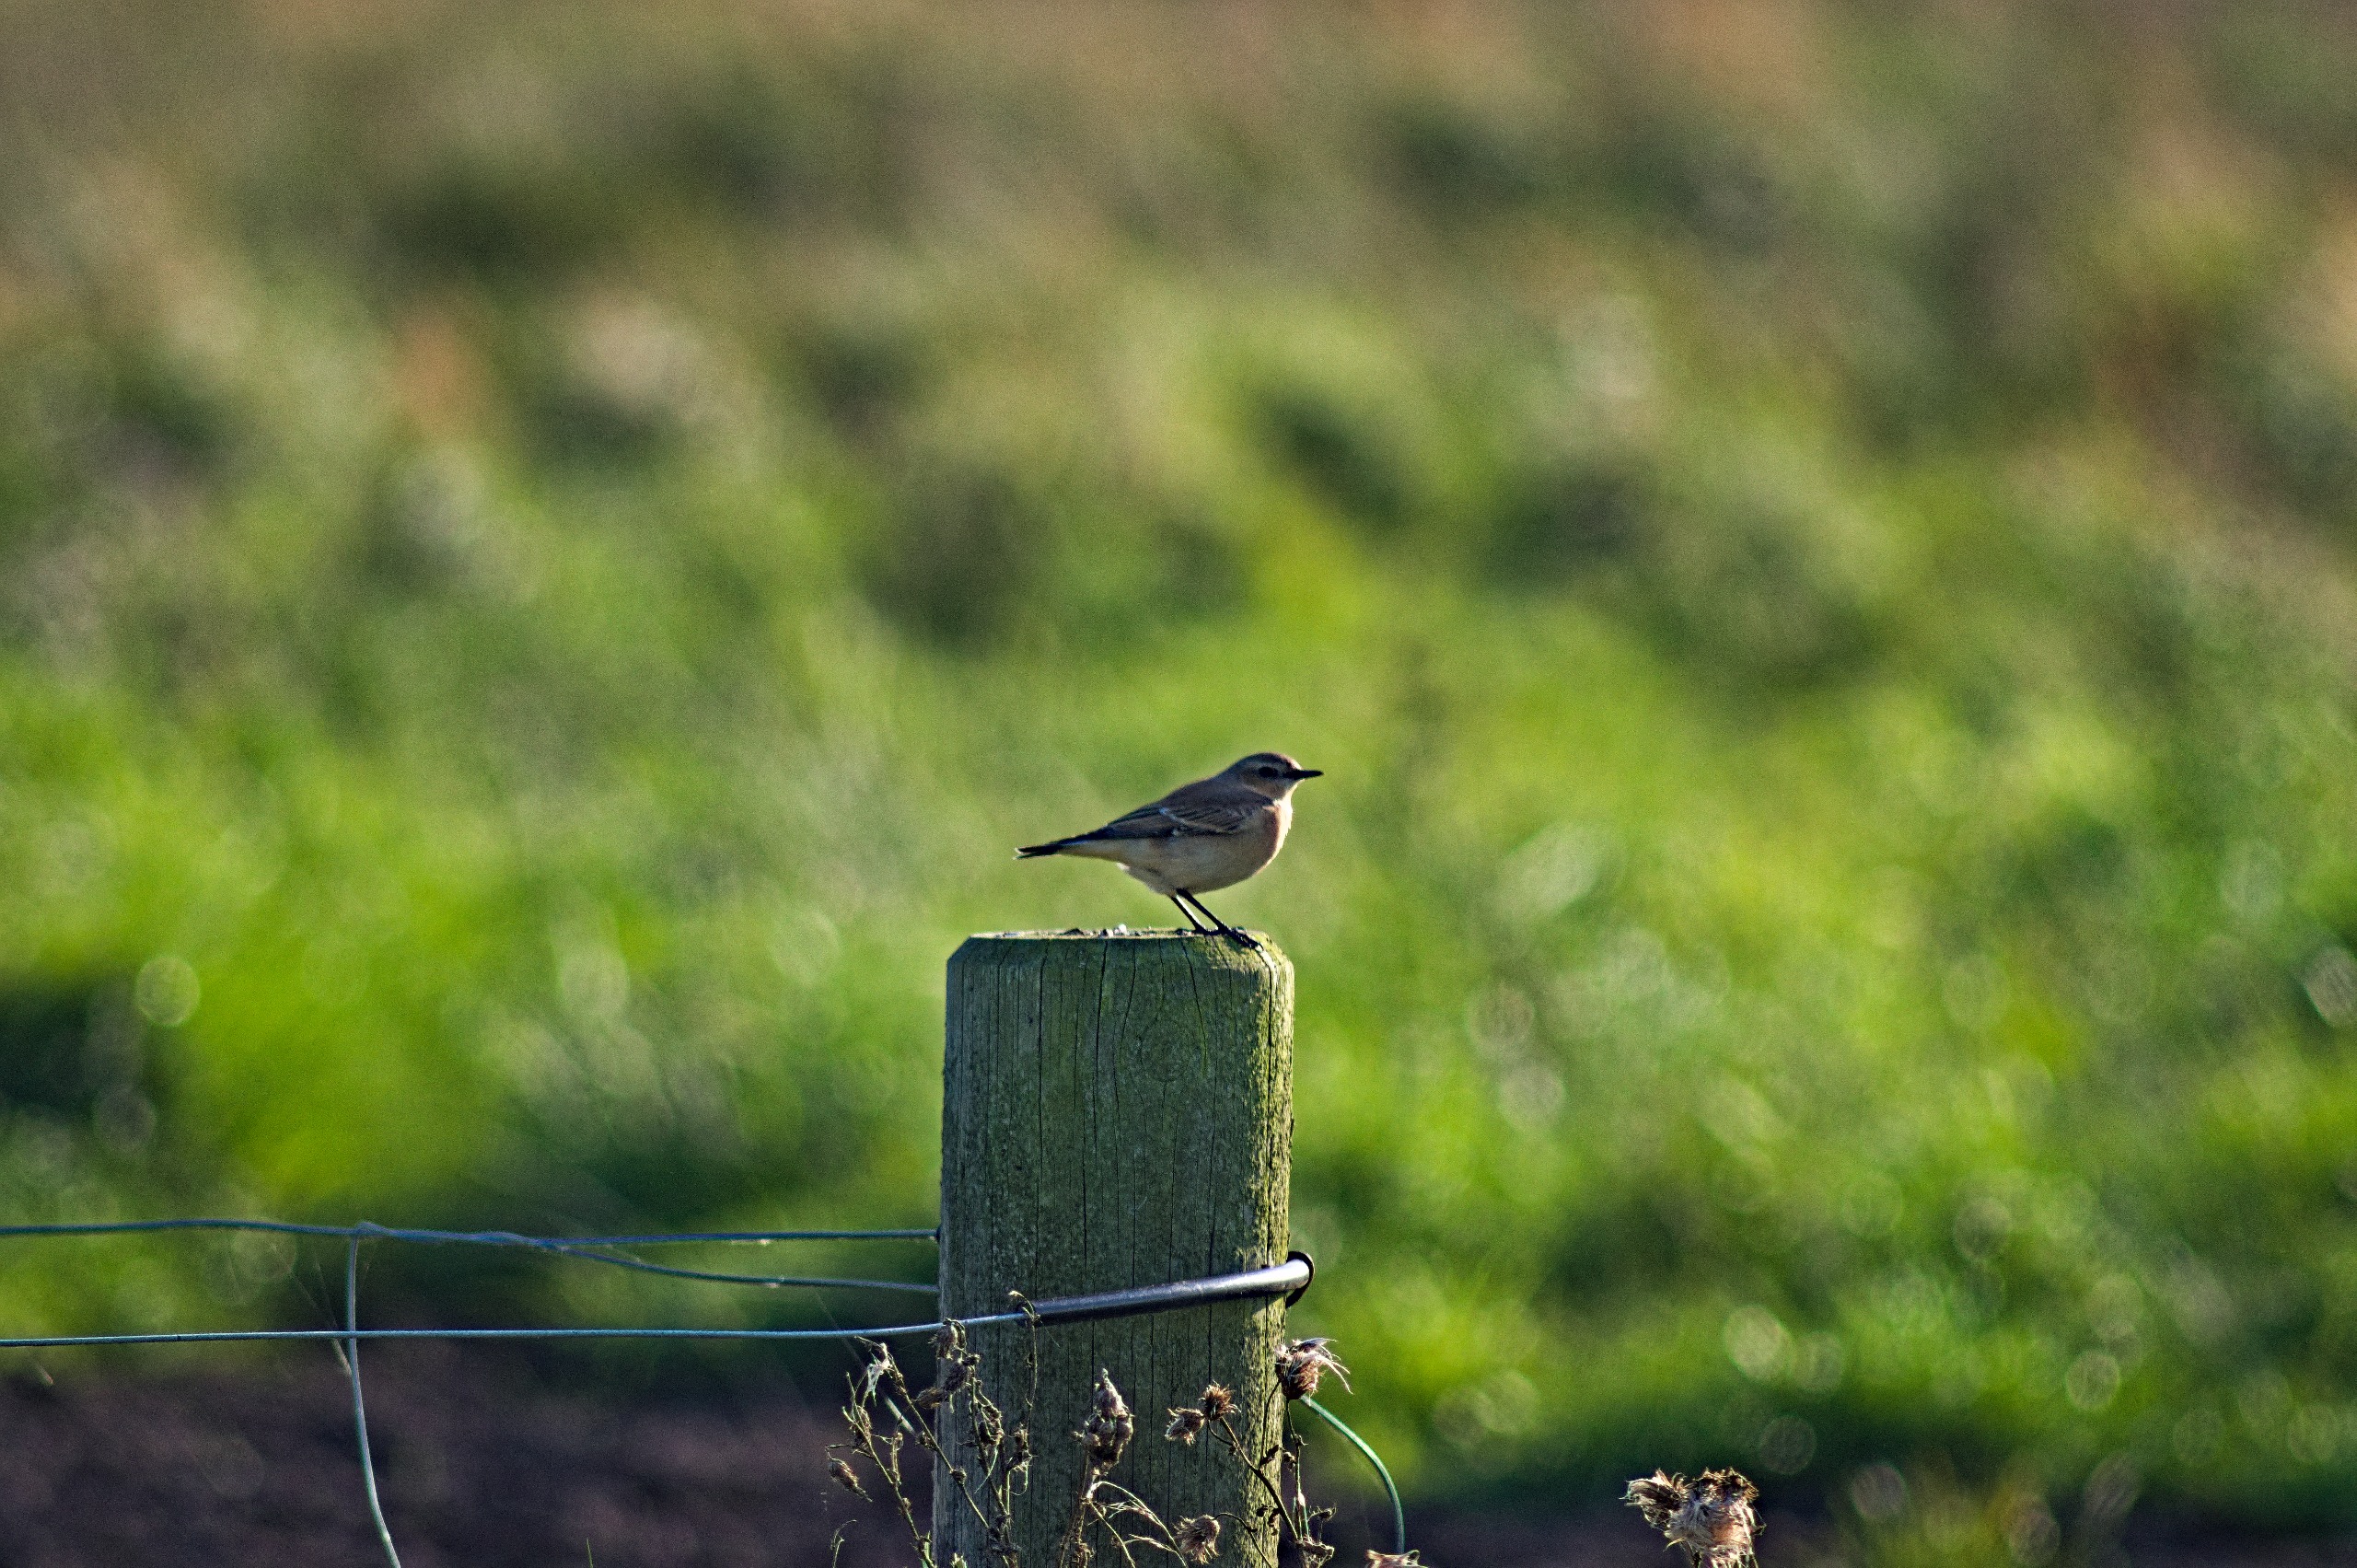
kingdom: Animalia
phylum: Chordata
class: Aves
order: Passeriformes
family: Muscicapidae
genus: Oenanthe
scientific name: Oenanthe oenanthe
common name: Stenpikker
